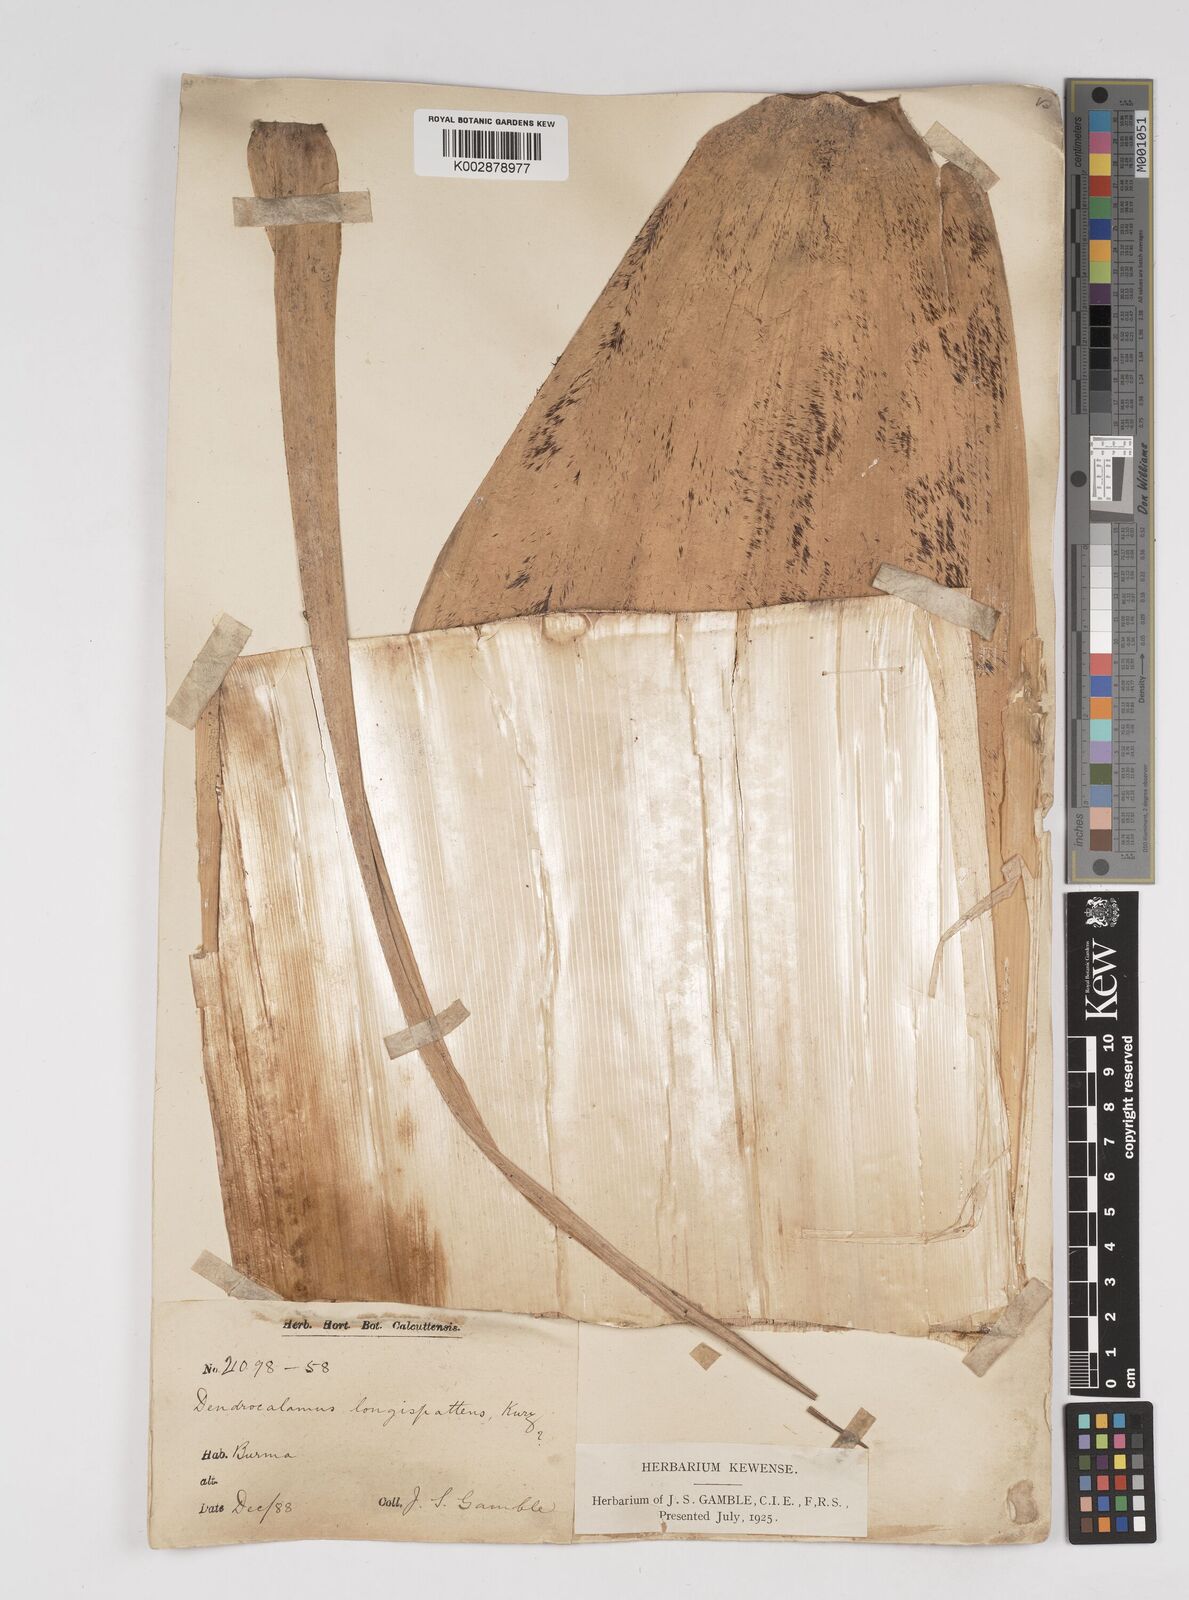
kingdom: Plantae
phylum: Tracheophyta
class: Liliopsida
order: Poales
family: Poaceae
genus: Dendrocalamus
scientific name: Dendrocalamus longispathus
